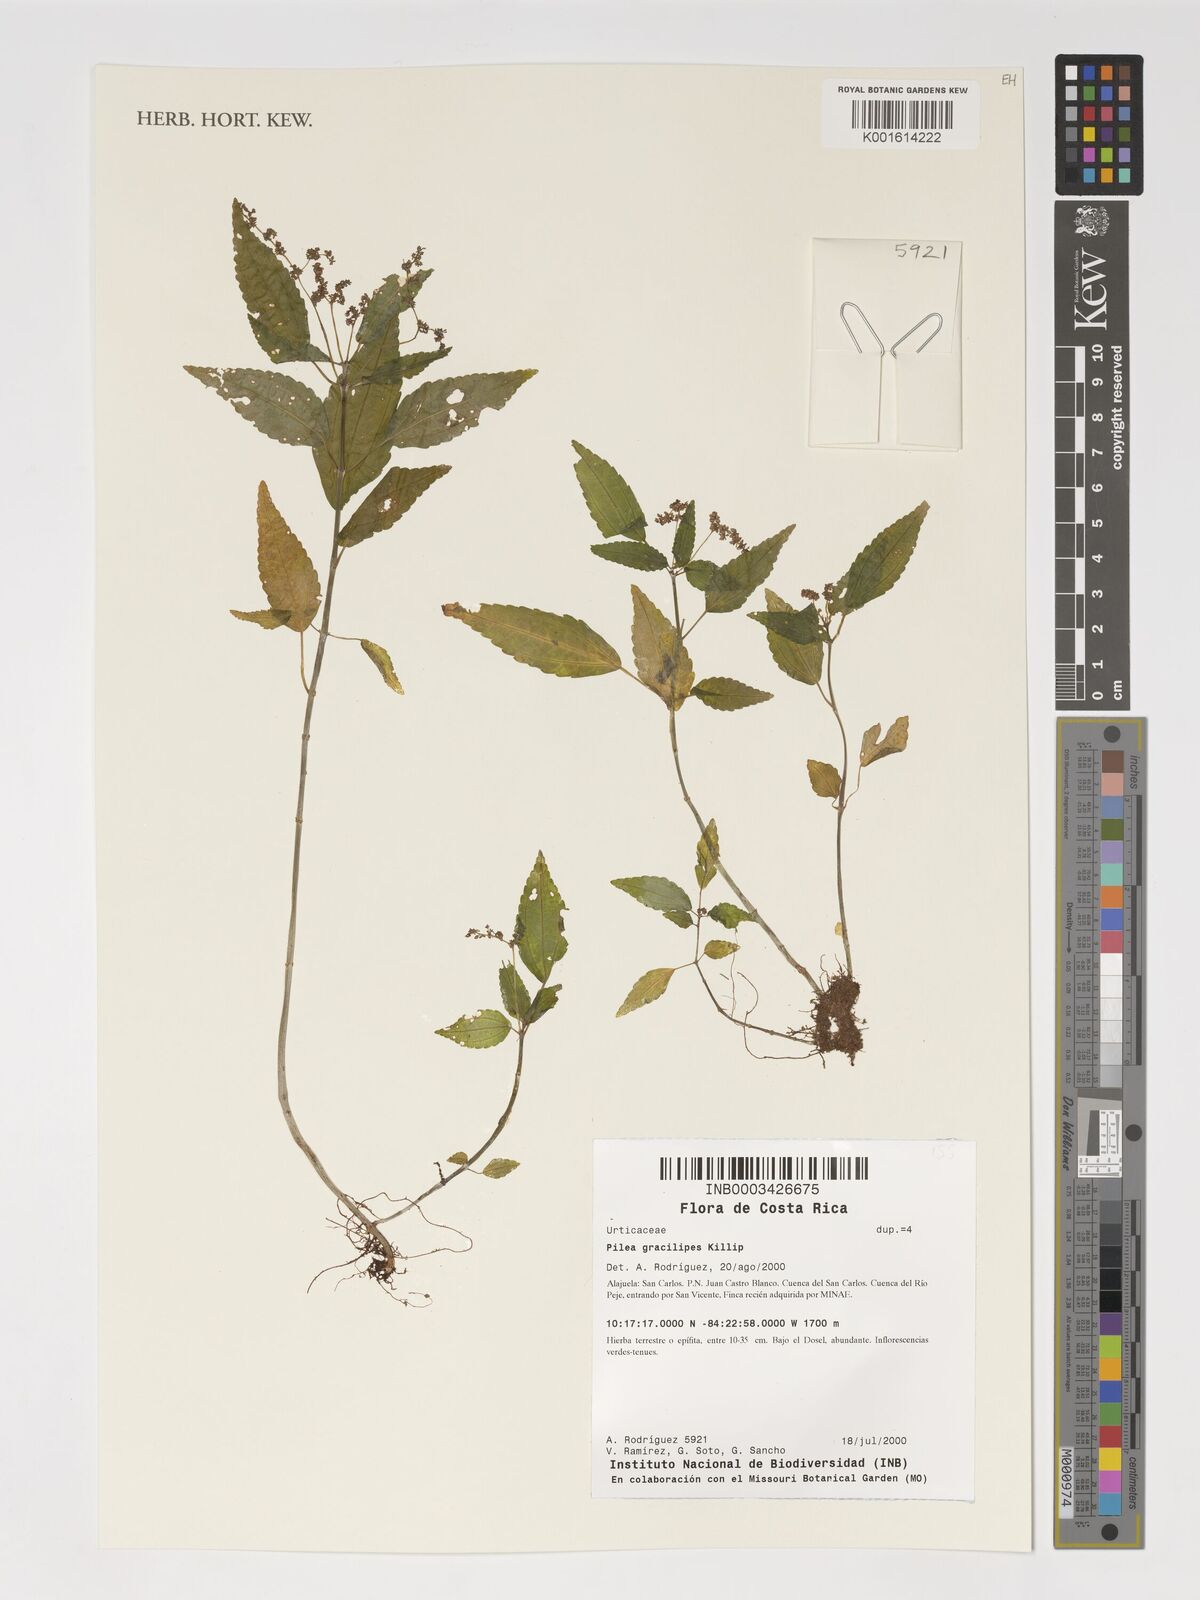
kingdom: Plantae
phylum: Tracheophyta
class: Magnoliopsida
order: Rosales
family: Urticaceae
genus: Pilea
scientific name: Pilea vulcanica
